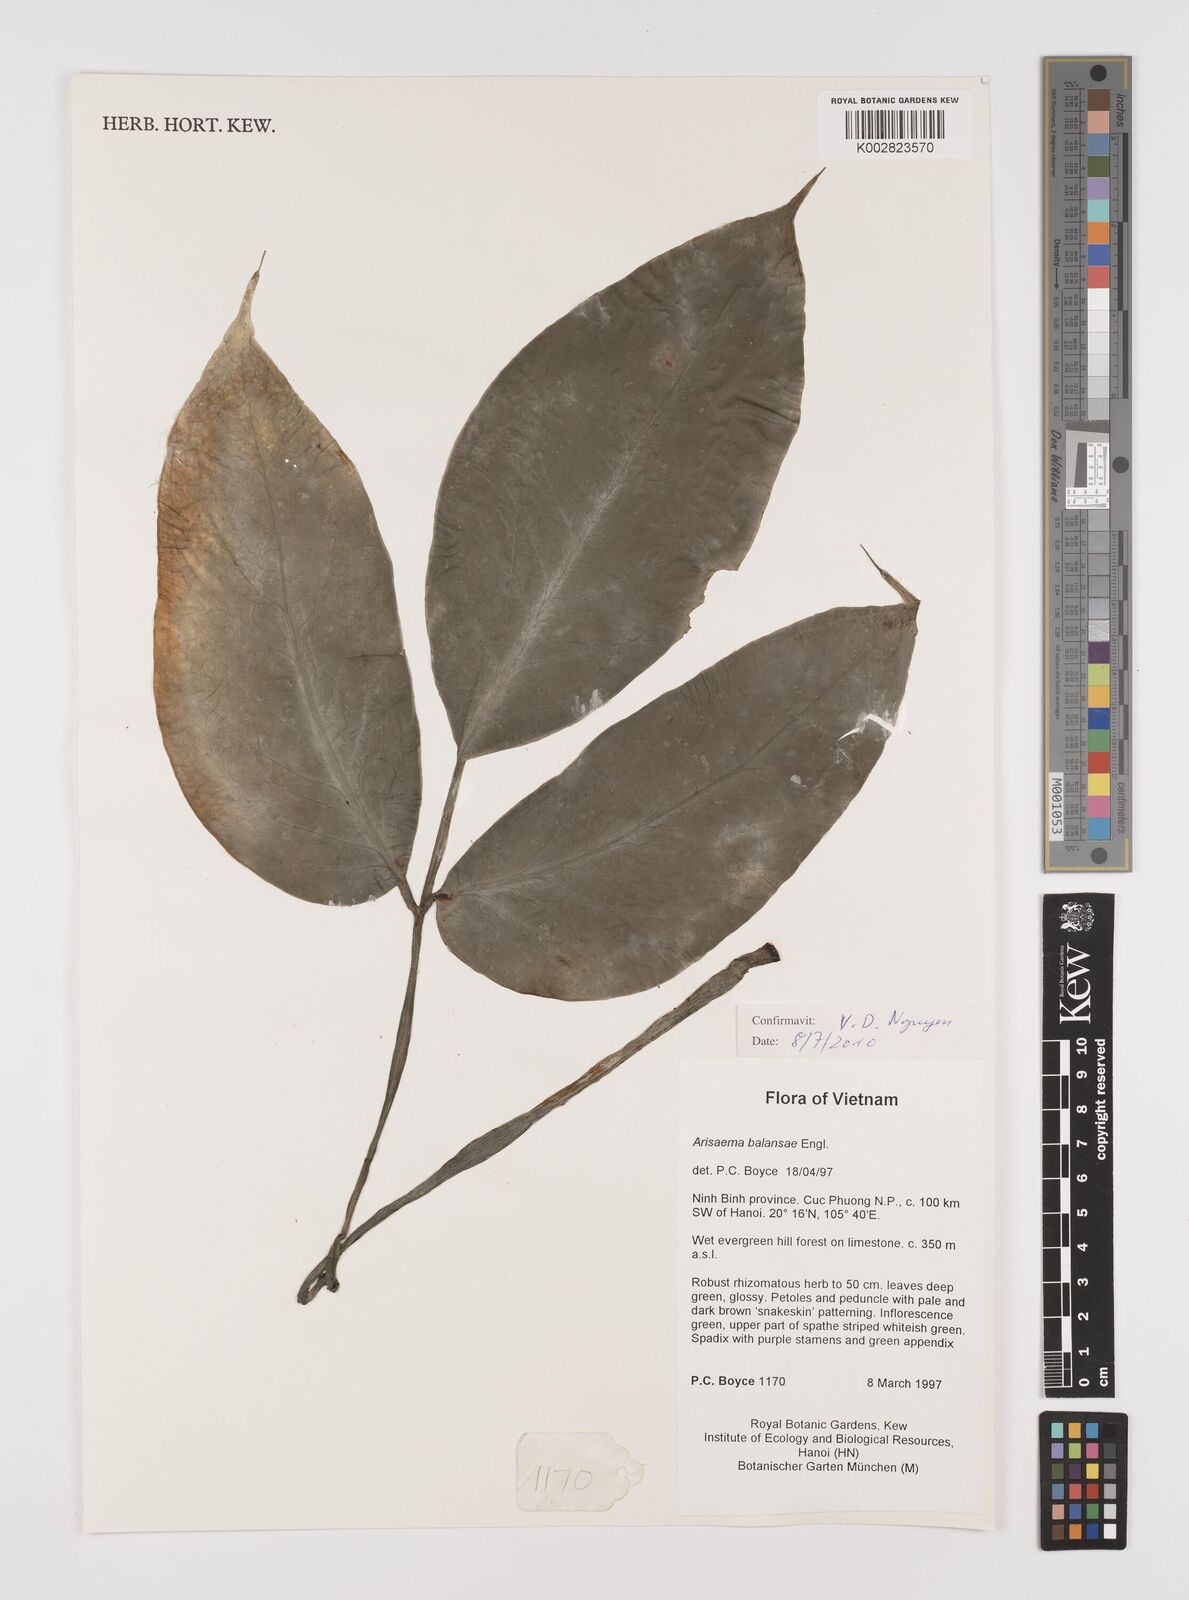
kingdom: Plantae
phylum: Tracheophyta
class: Liliopsida
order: Alismatales
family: Araceae
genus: Arisaema
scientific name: Arisaema balansae
